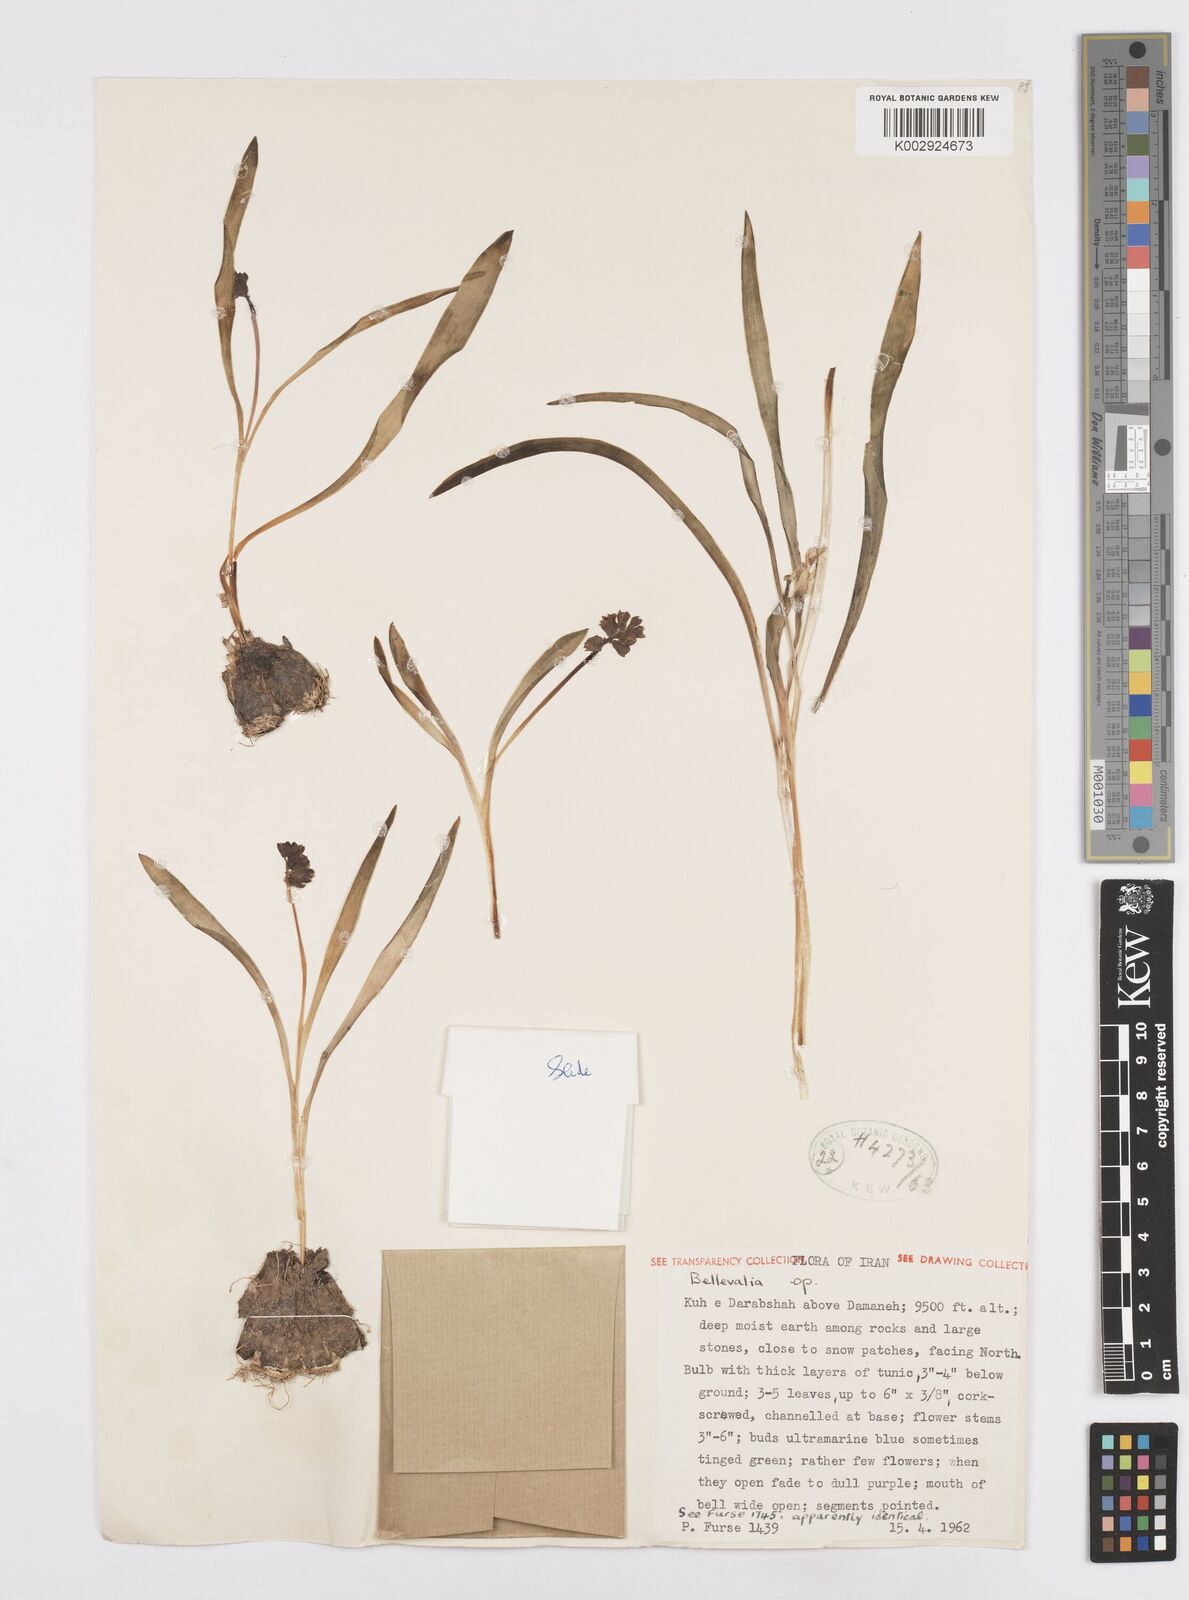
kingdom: Plantae
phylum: Tracheophyta
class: Liliopsida
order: Asparagales
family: Asparagaceae
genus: Bellevalia
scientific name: Bellevalia tristis
